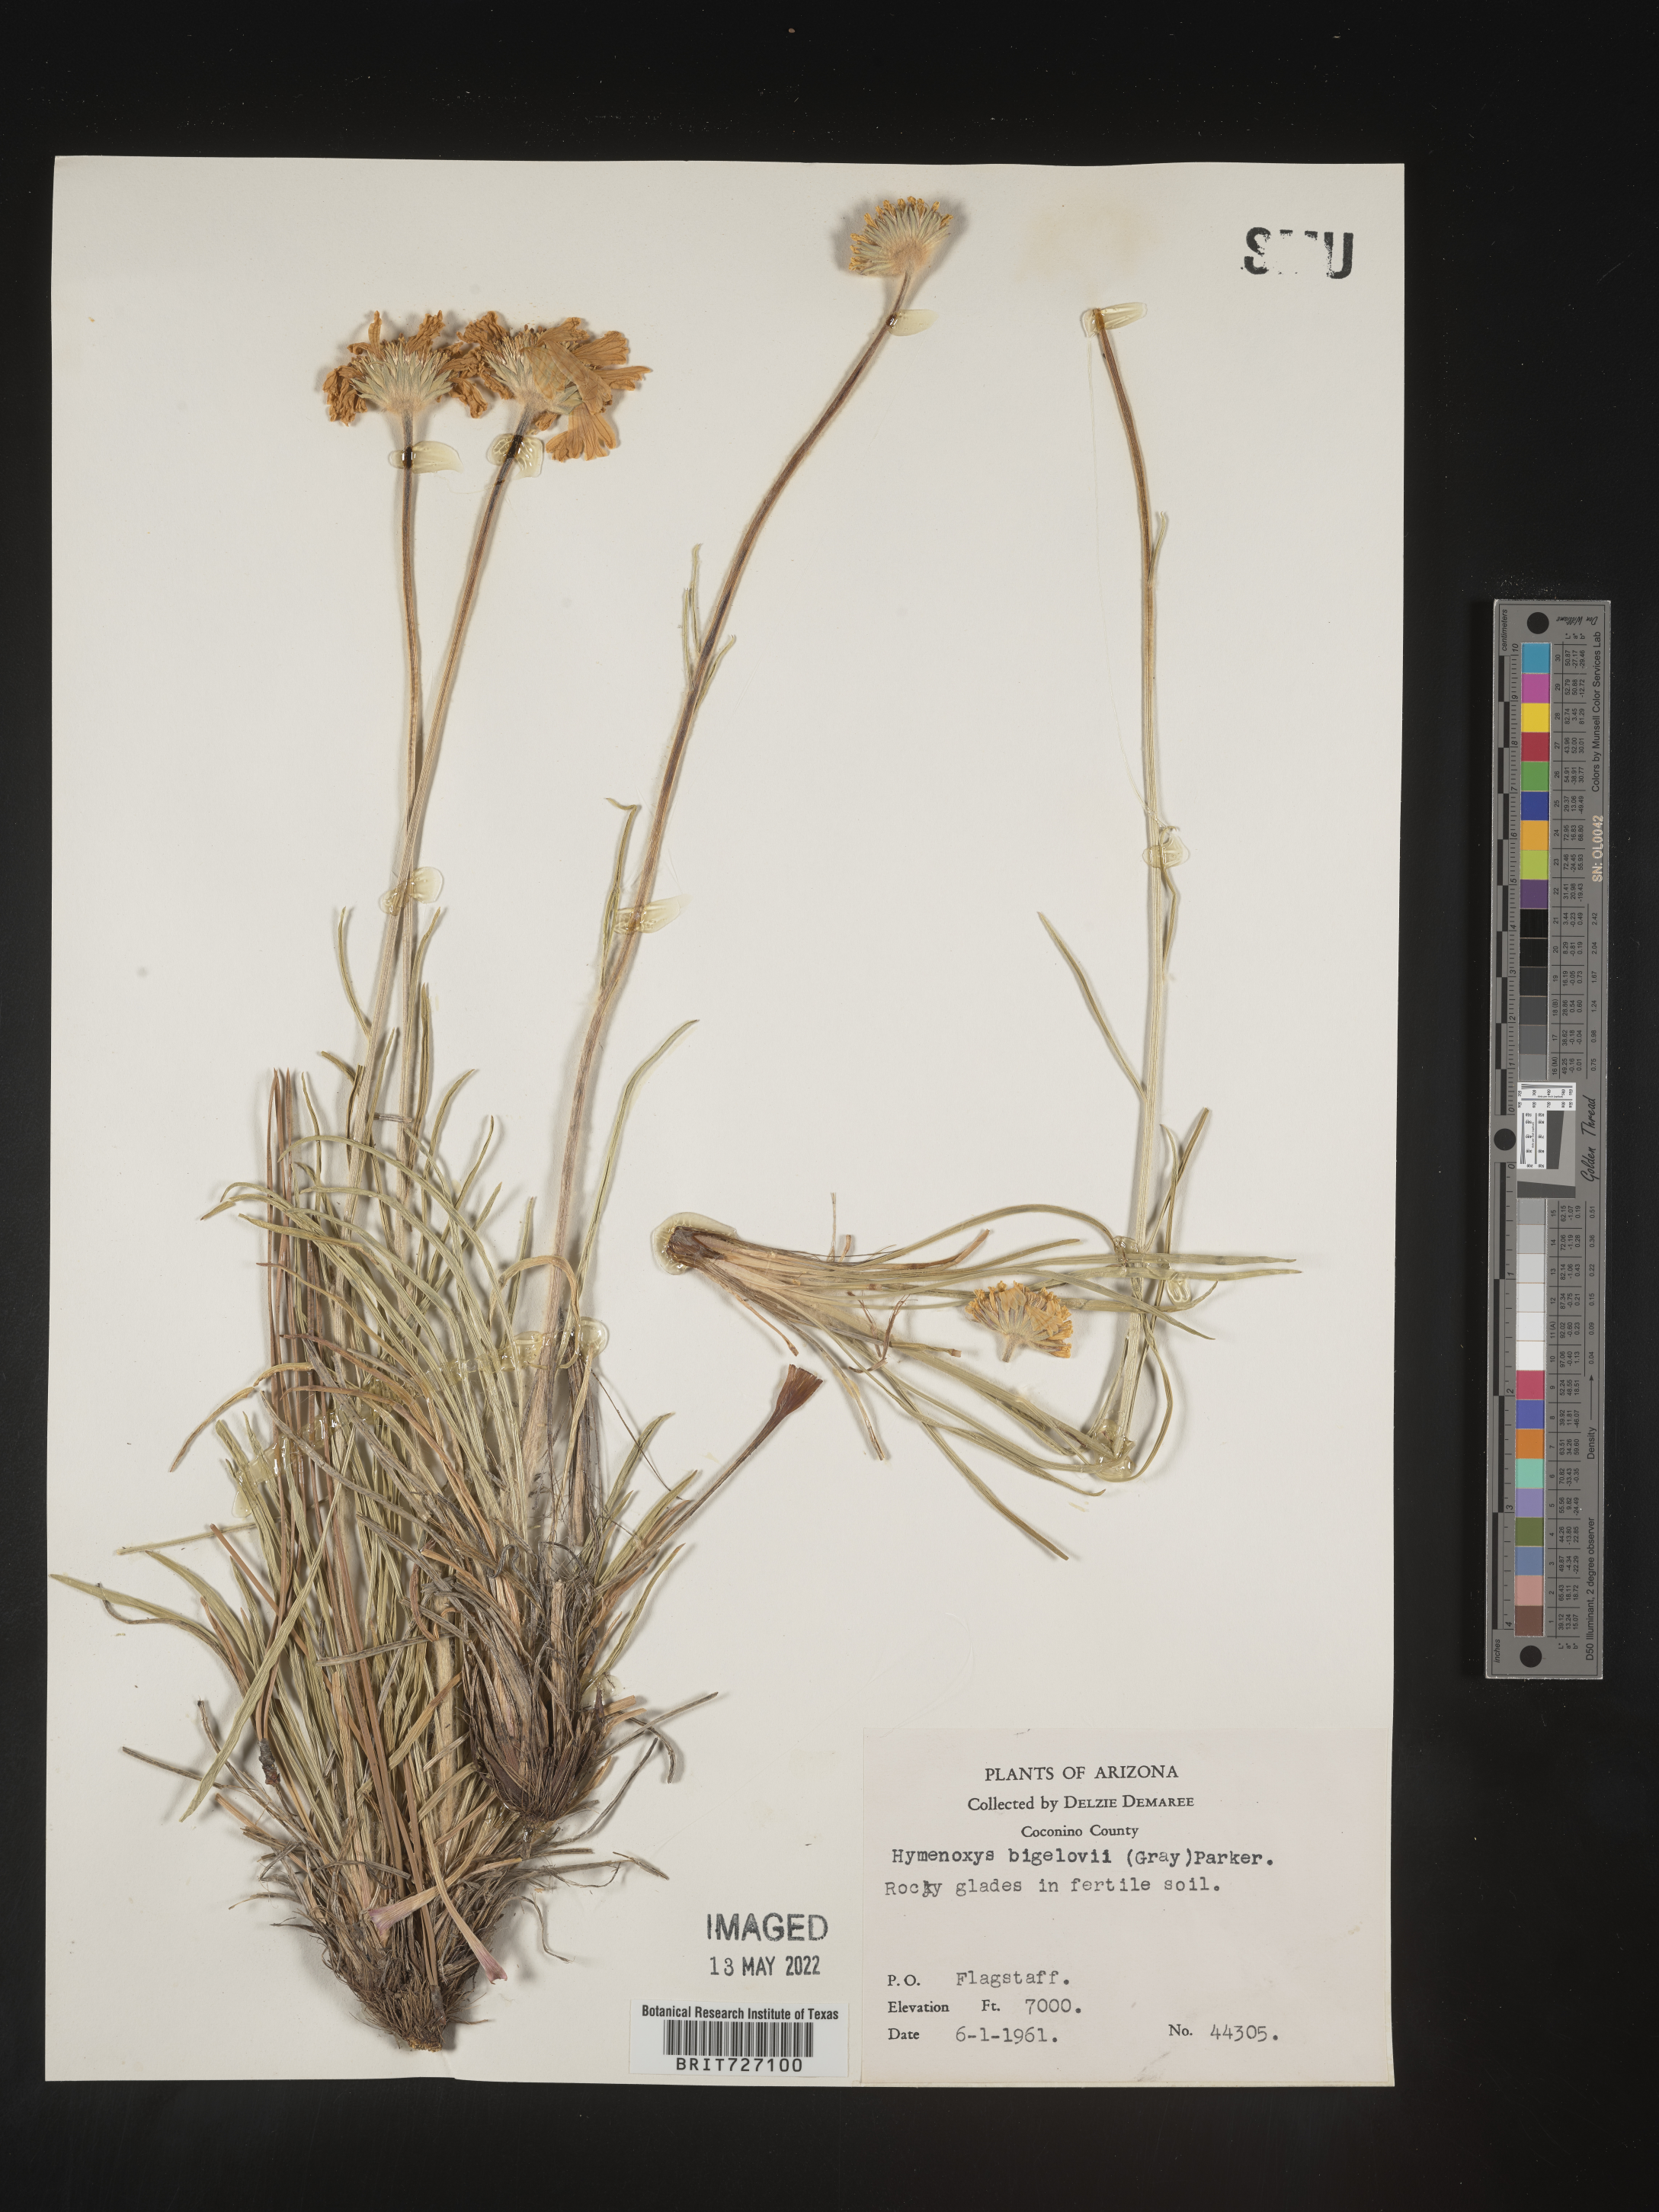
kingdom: Plantae
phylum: Tracheophyta
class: Magnoliopsida
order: Asterales
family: Asteraceae
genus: Hymenoxys
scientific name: Hymenoxys bigelovii
